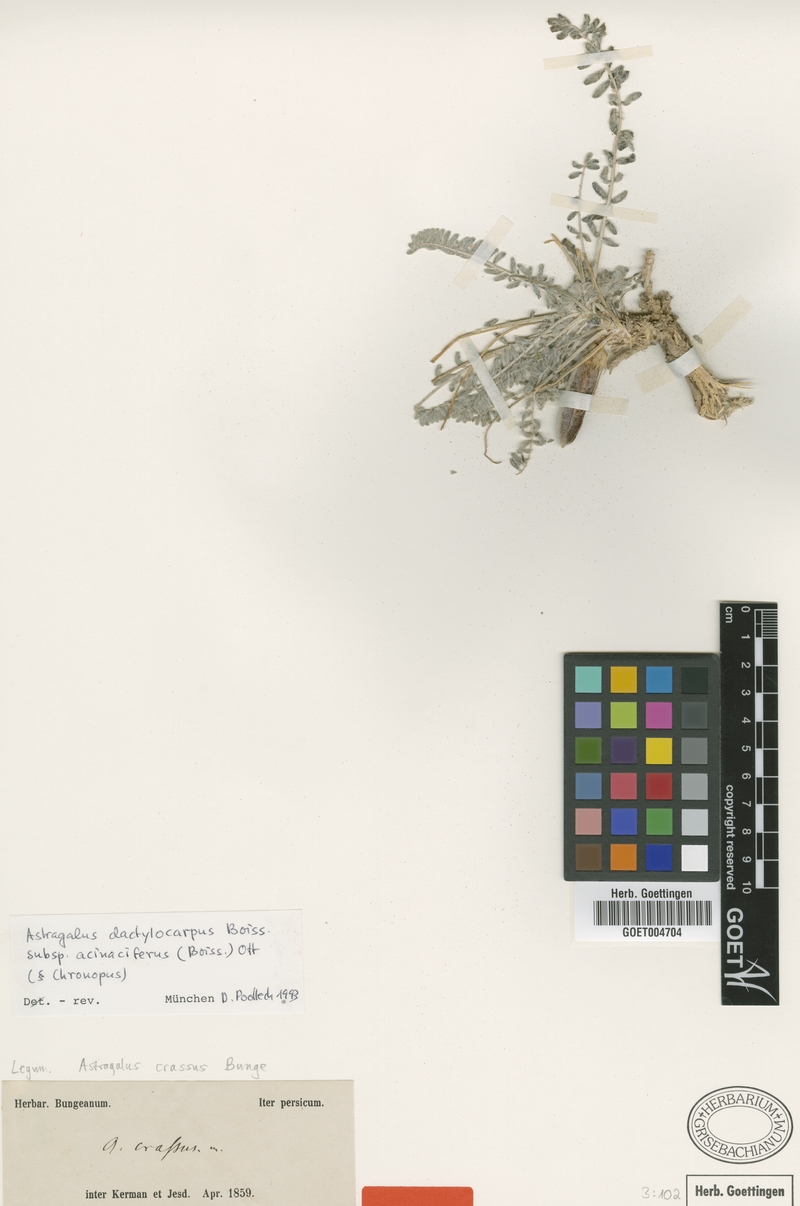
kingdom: Plantae
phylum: Tracheophyta
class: Magnoliopsida
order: Fabales
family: Fabaceae
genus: Astragalus
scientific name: Astragalus dactylocarpus
